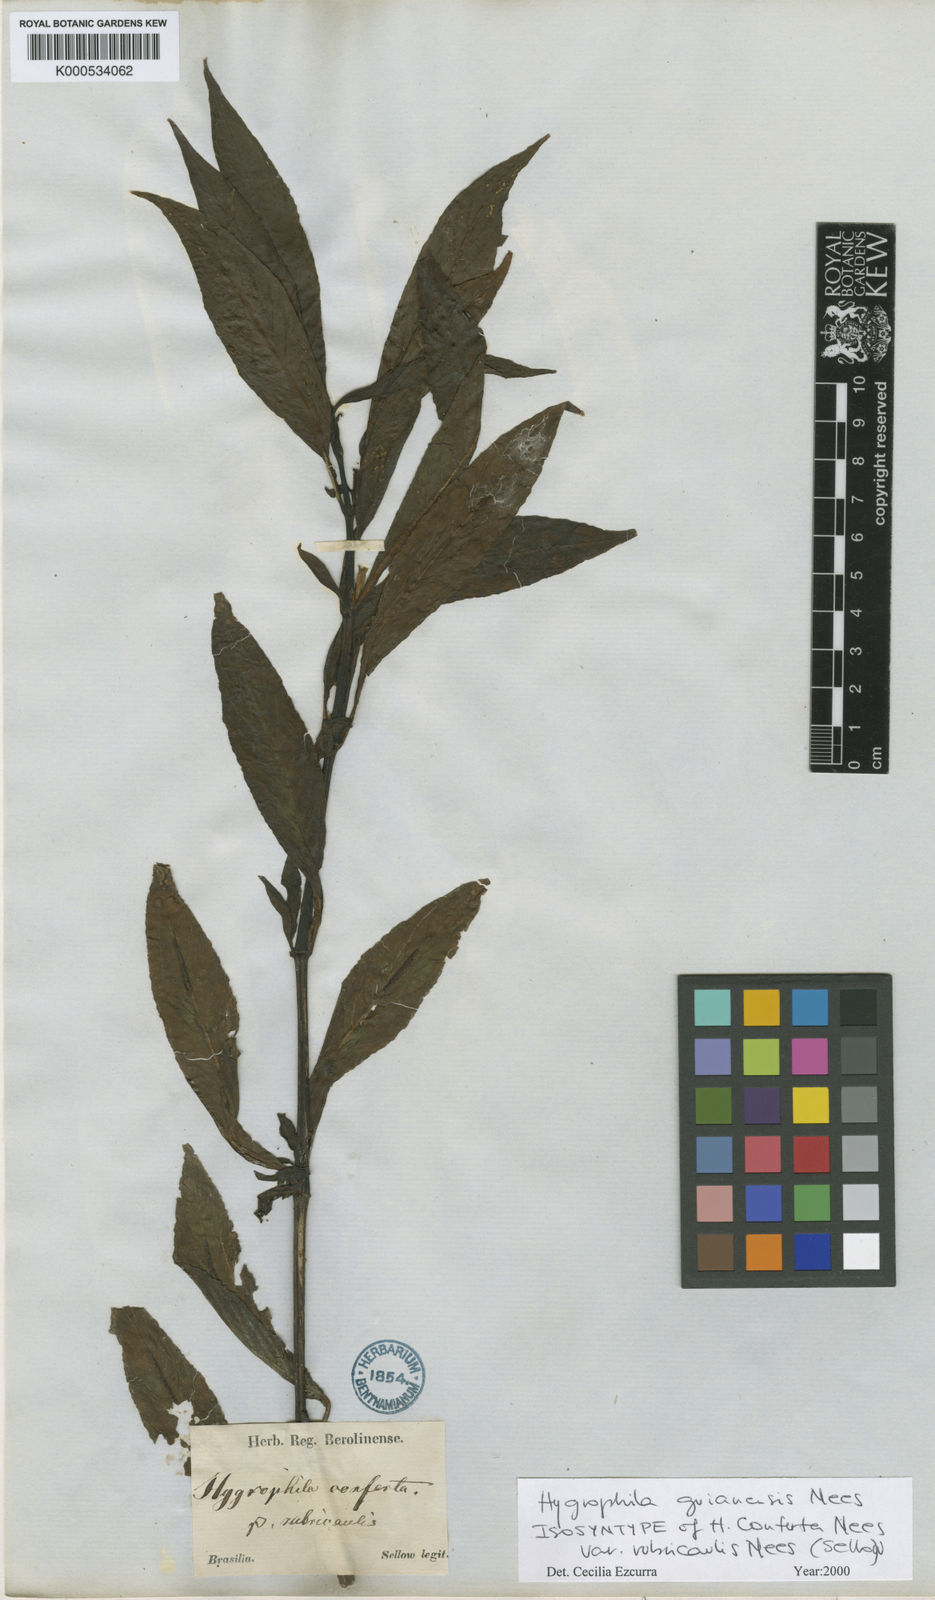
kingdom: Plantae
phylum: Tracheophyta
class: Magnoliopsida
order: Lamiales
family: Acanthaceae
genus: Hygrophila
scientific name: Hygrophila costata
